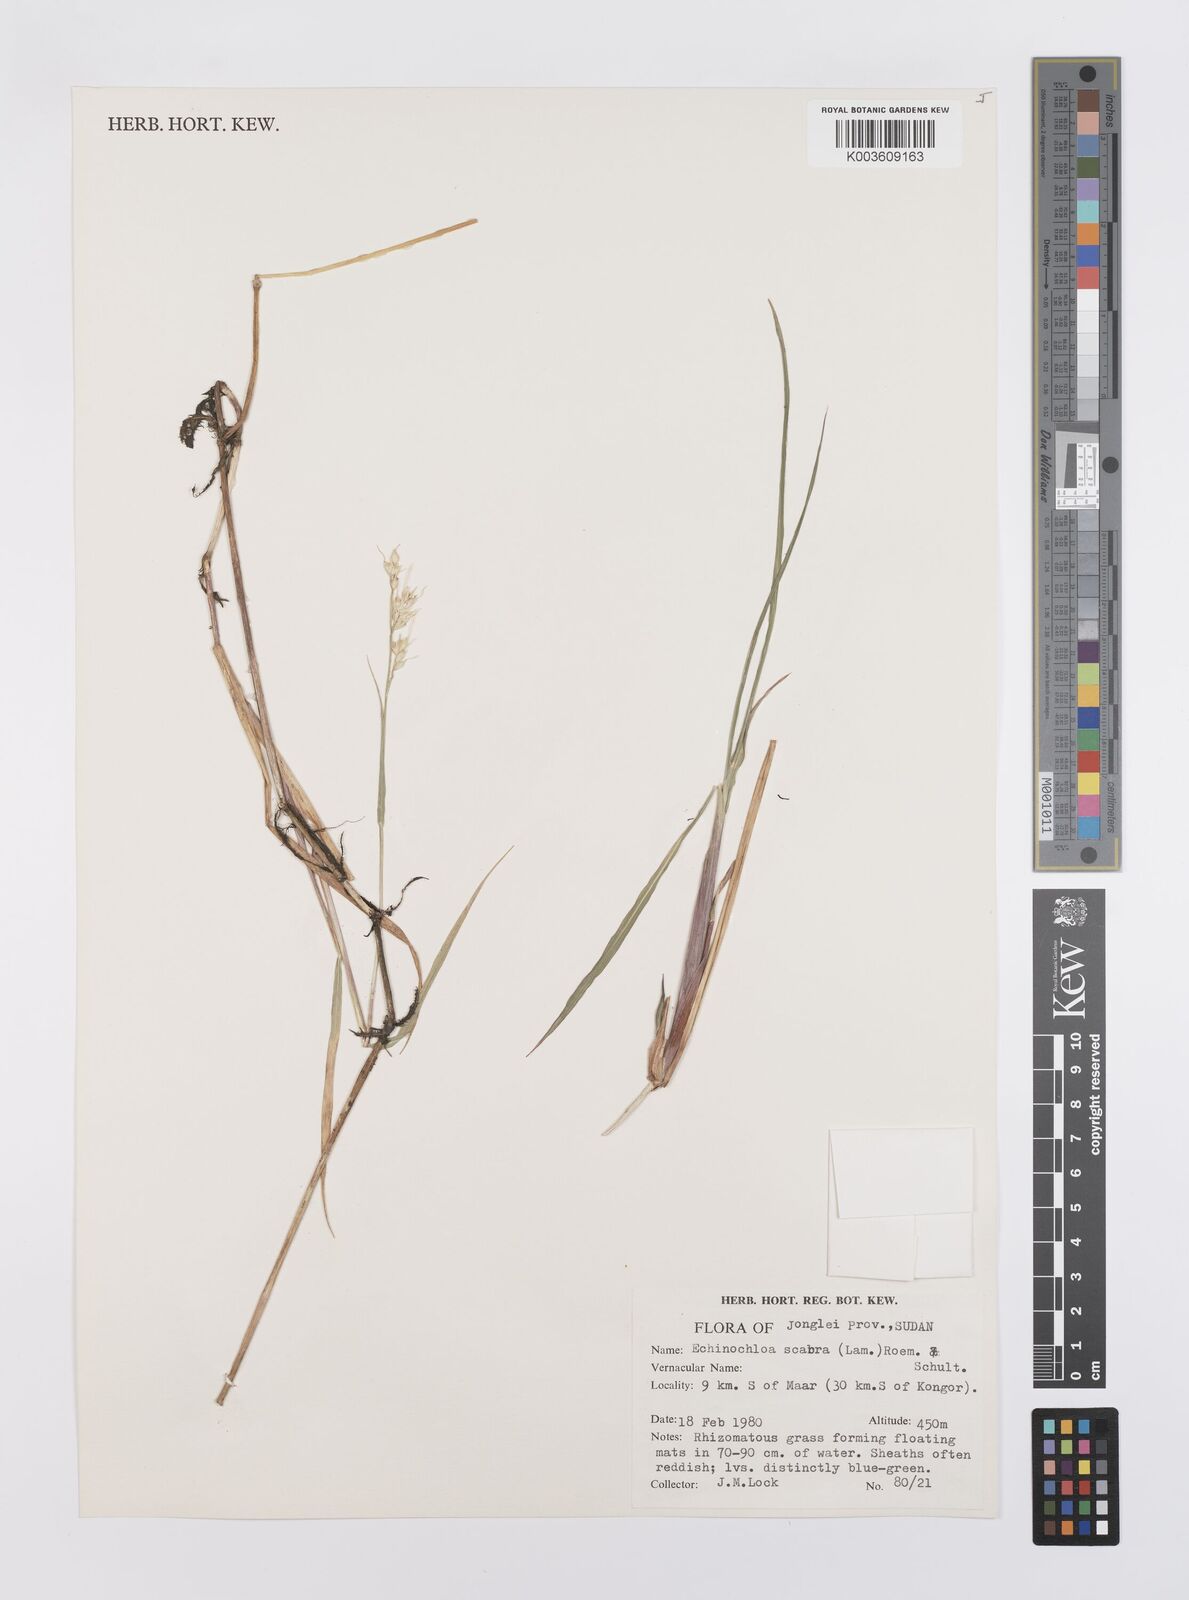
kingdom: Plantae
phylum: Tracheophyta
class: Liliopsida
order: Poales
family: Poaceae
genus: Echinochloa
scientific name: Echinochloa stagnina
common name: Burgu grass
